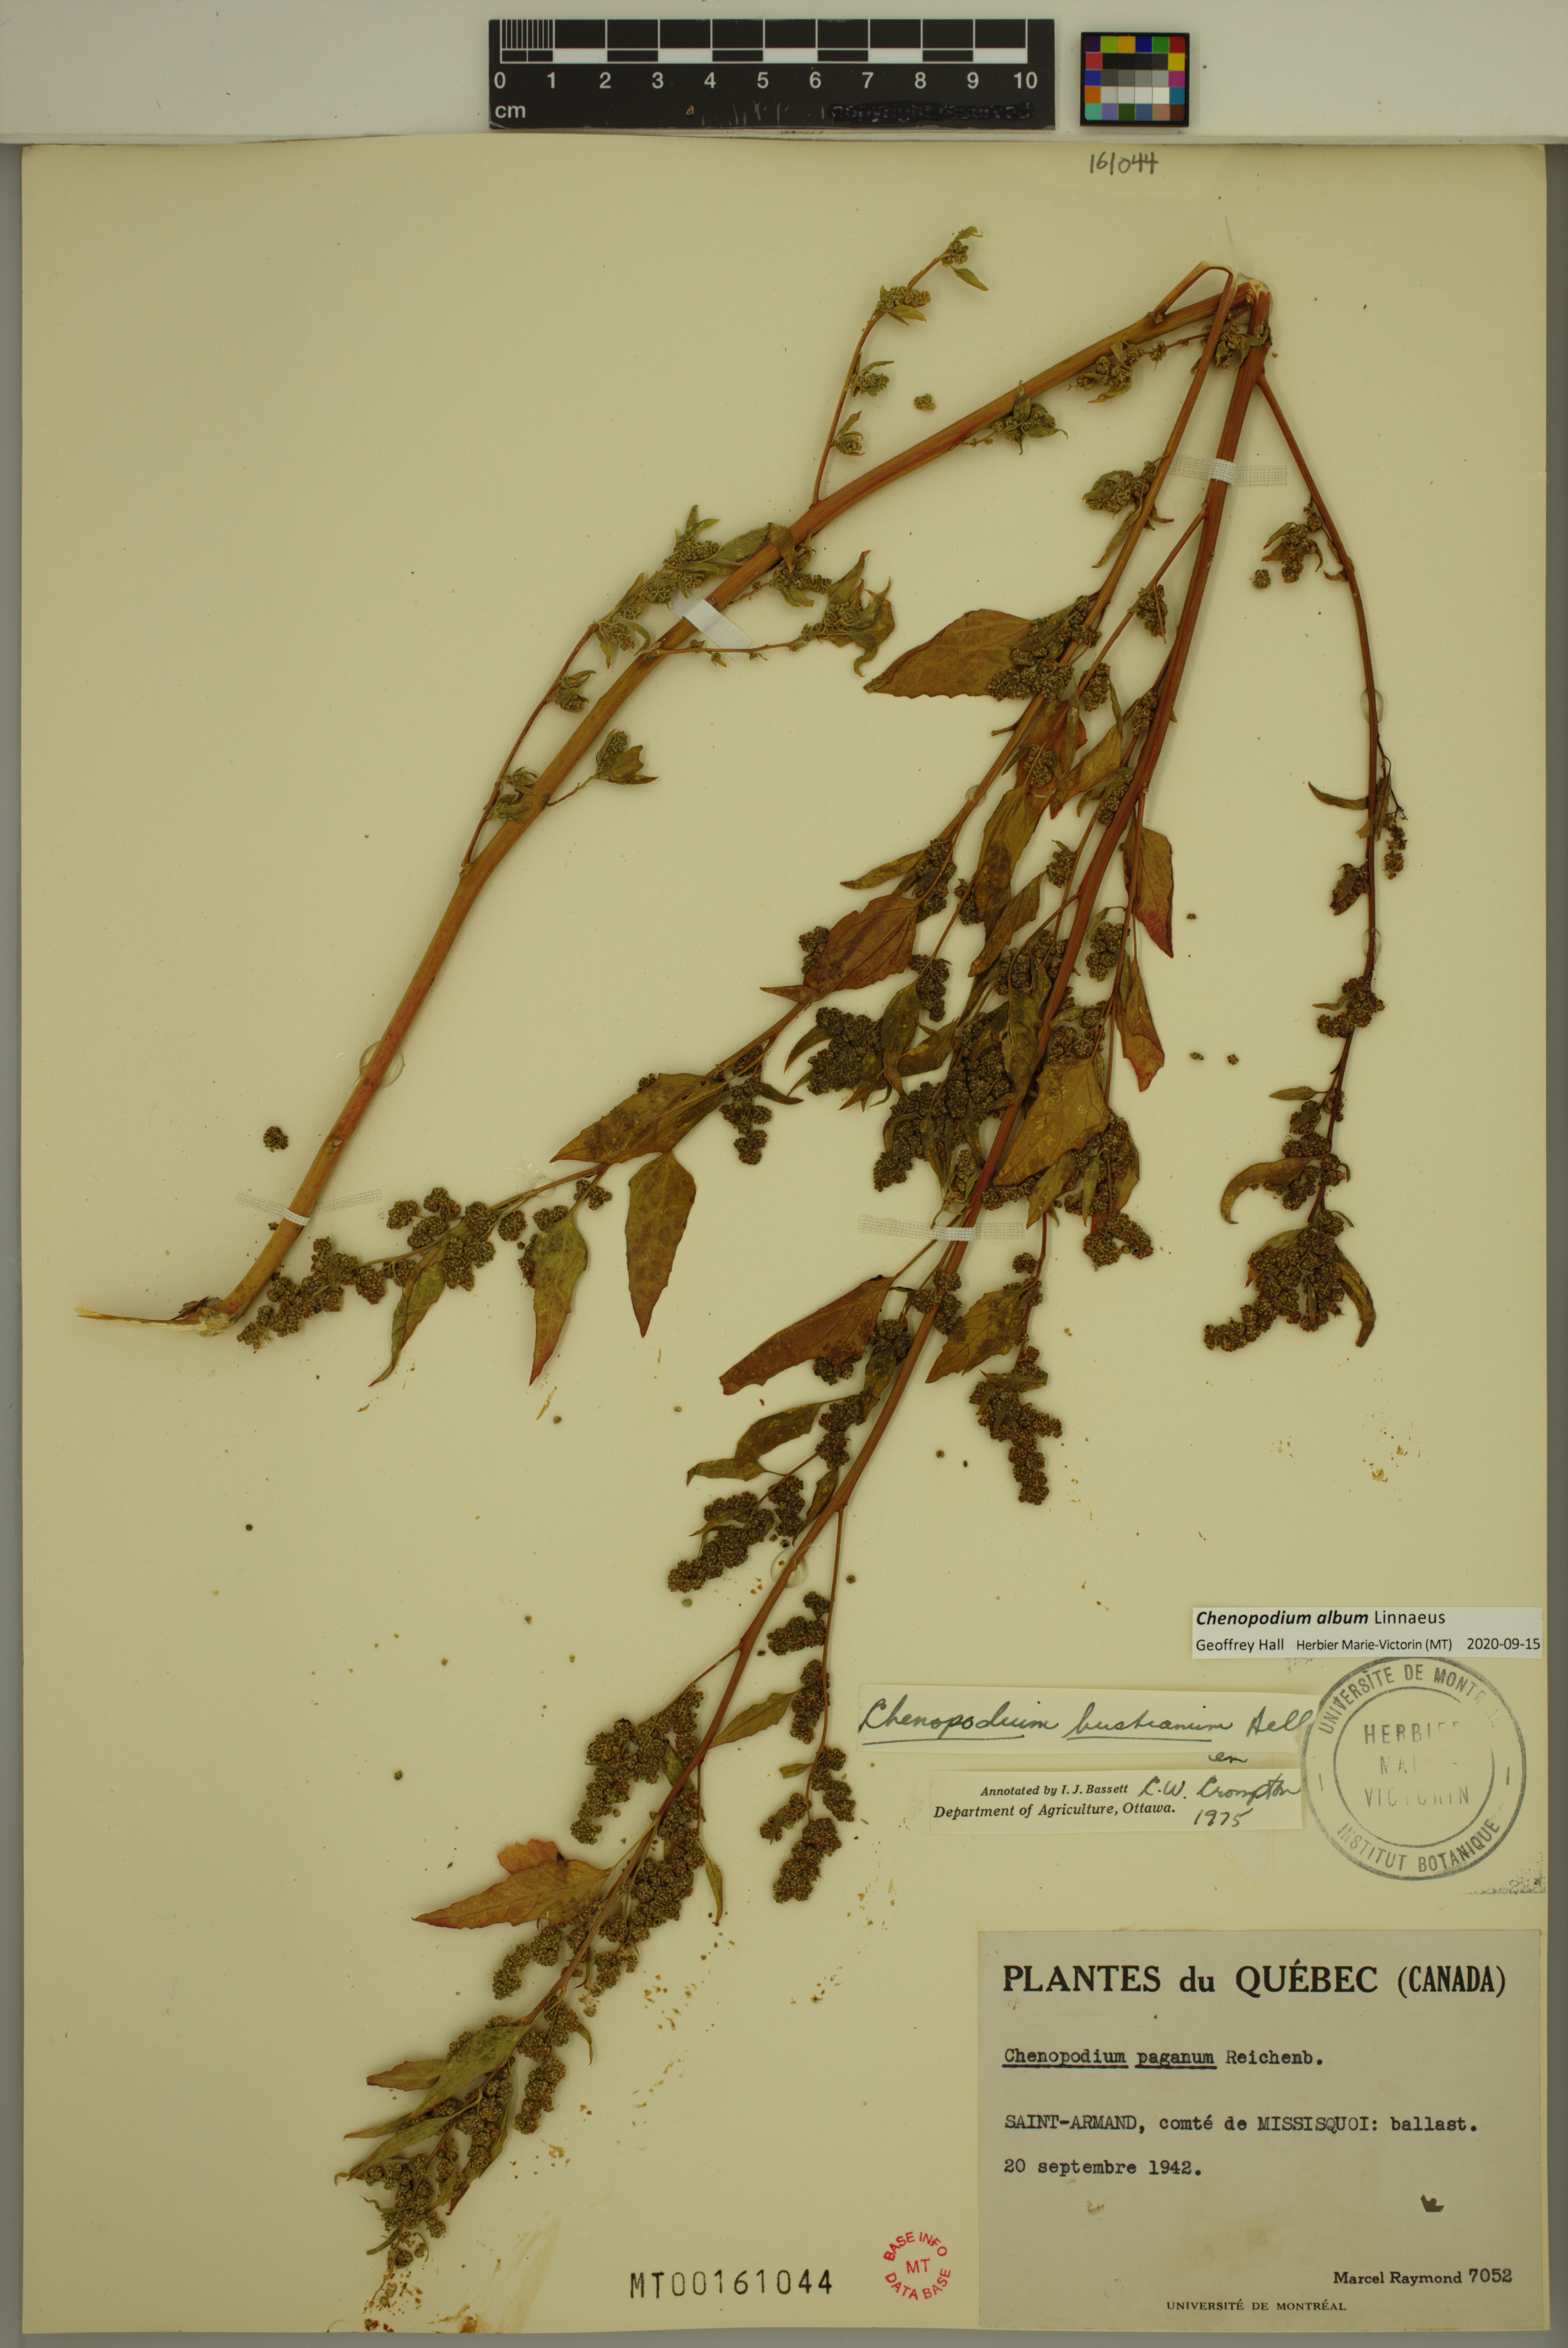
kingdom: Plantae
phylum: Tracheophyta
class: Magnoliopsida
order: Caryophyllales
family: Amaranthaceae
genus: Chenopodium
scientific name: Chenopodium album
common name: Fat-hen
